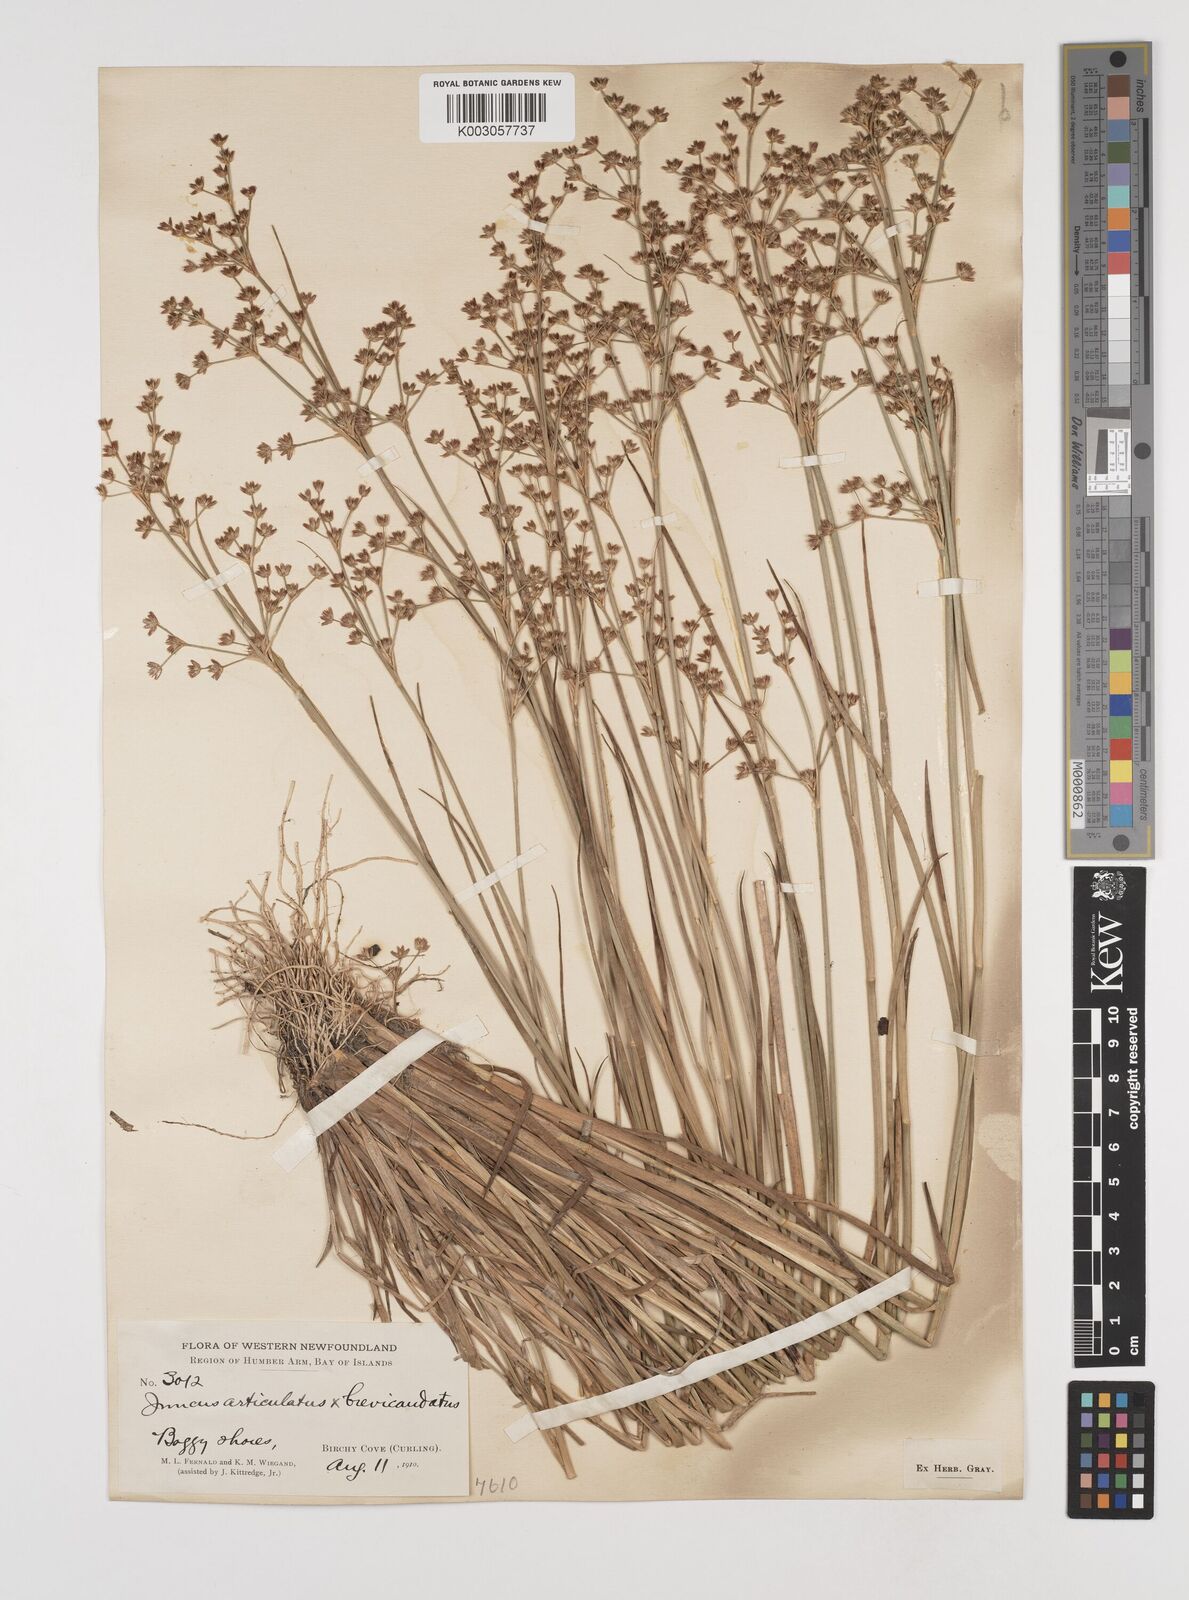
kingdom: Plantae
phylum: Tracheophyta
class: Liliopsida
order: Poales
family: Juncaceae
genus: Juncus
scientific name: Juncus articulatus
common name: Jointed rush
